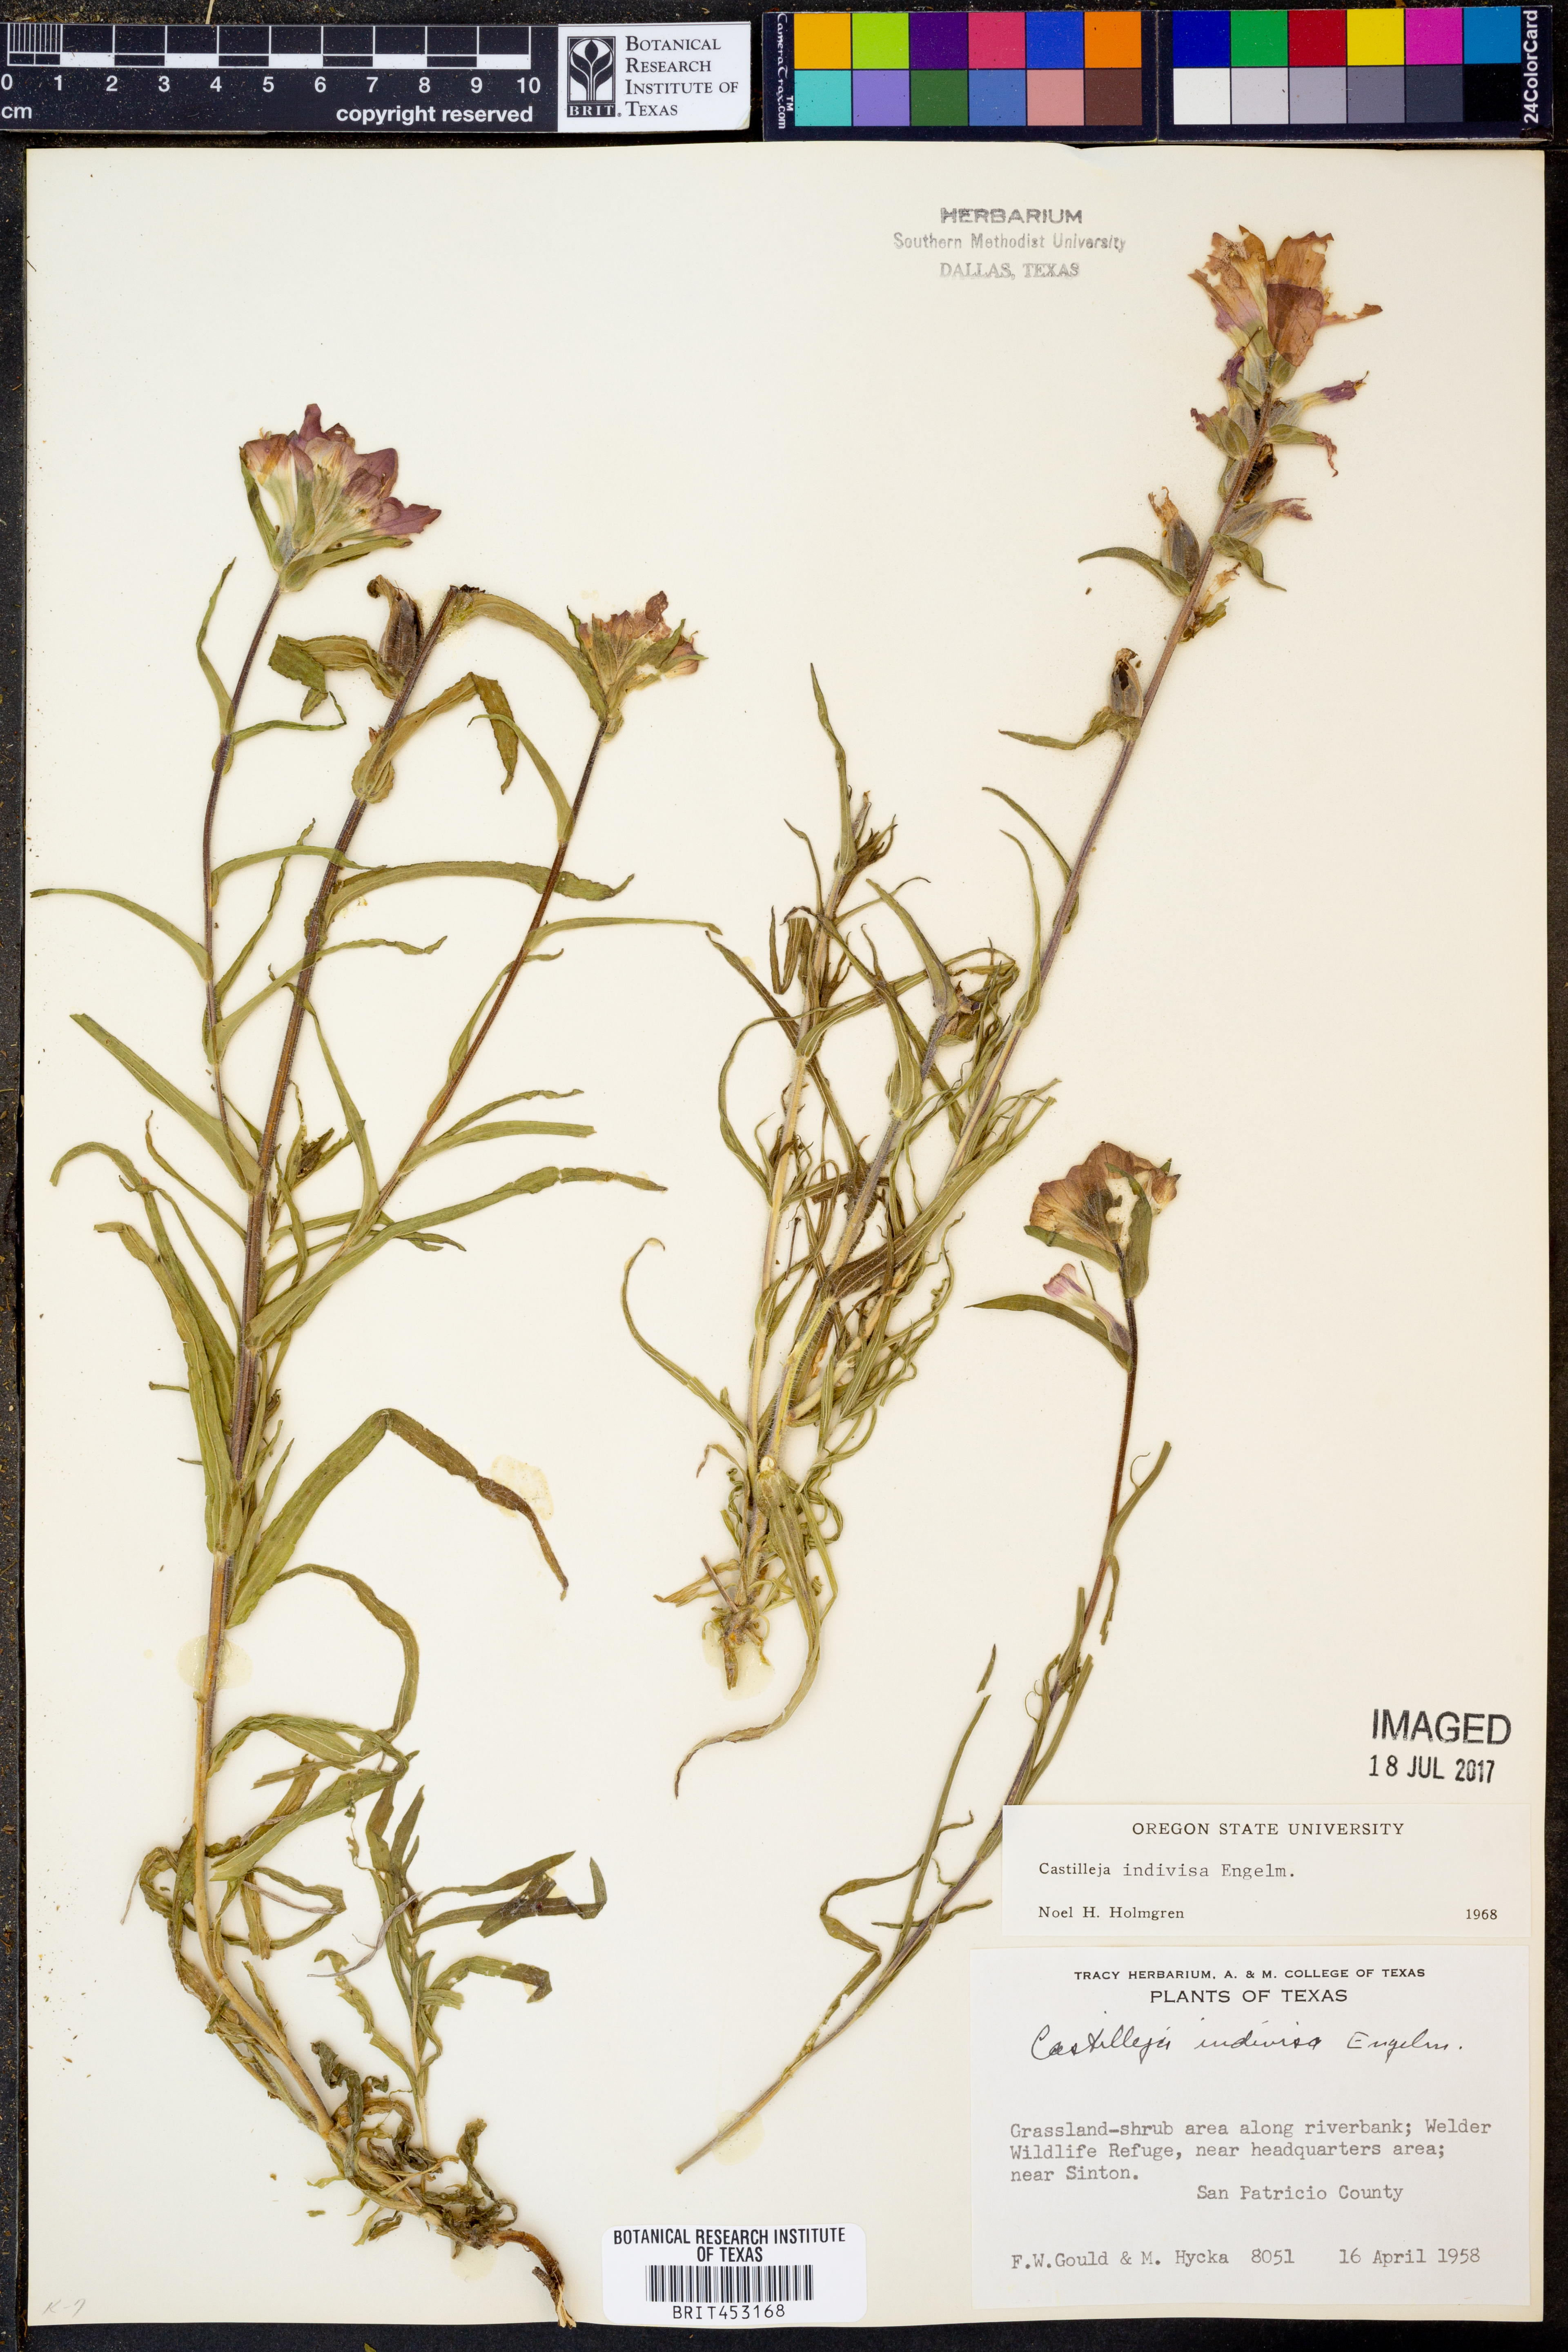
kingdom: Plantae
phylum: Tracheophyta
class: Magnoliopsida
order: Lamiales
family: Orobanchaceae
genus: Castilleja
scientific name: Castilleja indivisa
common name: Texas paintbrush
